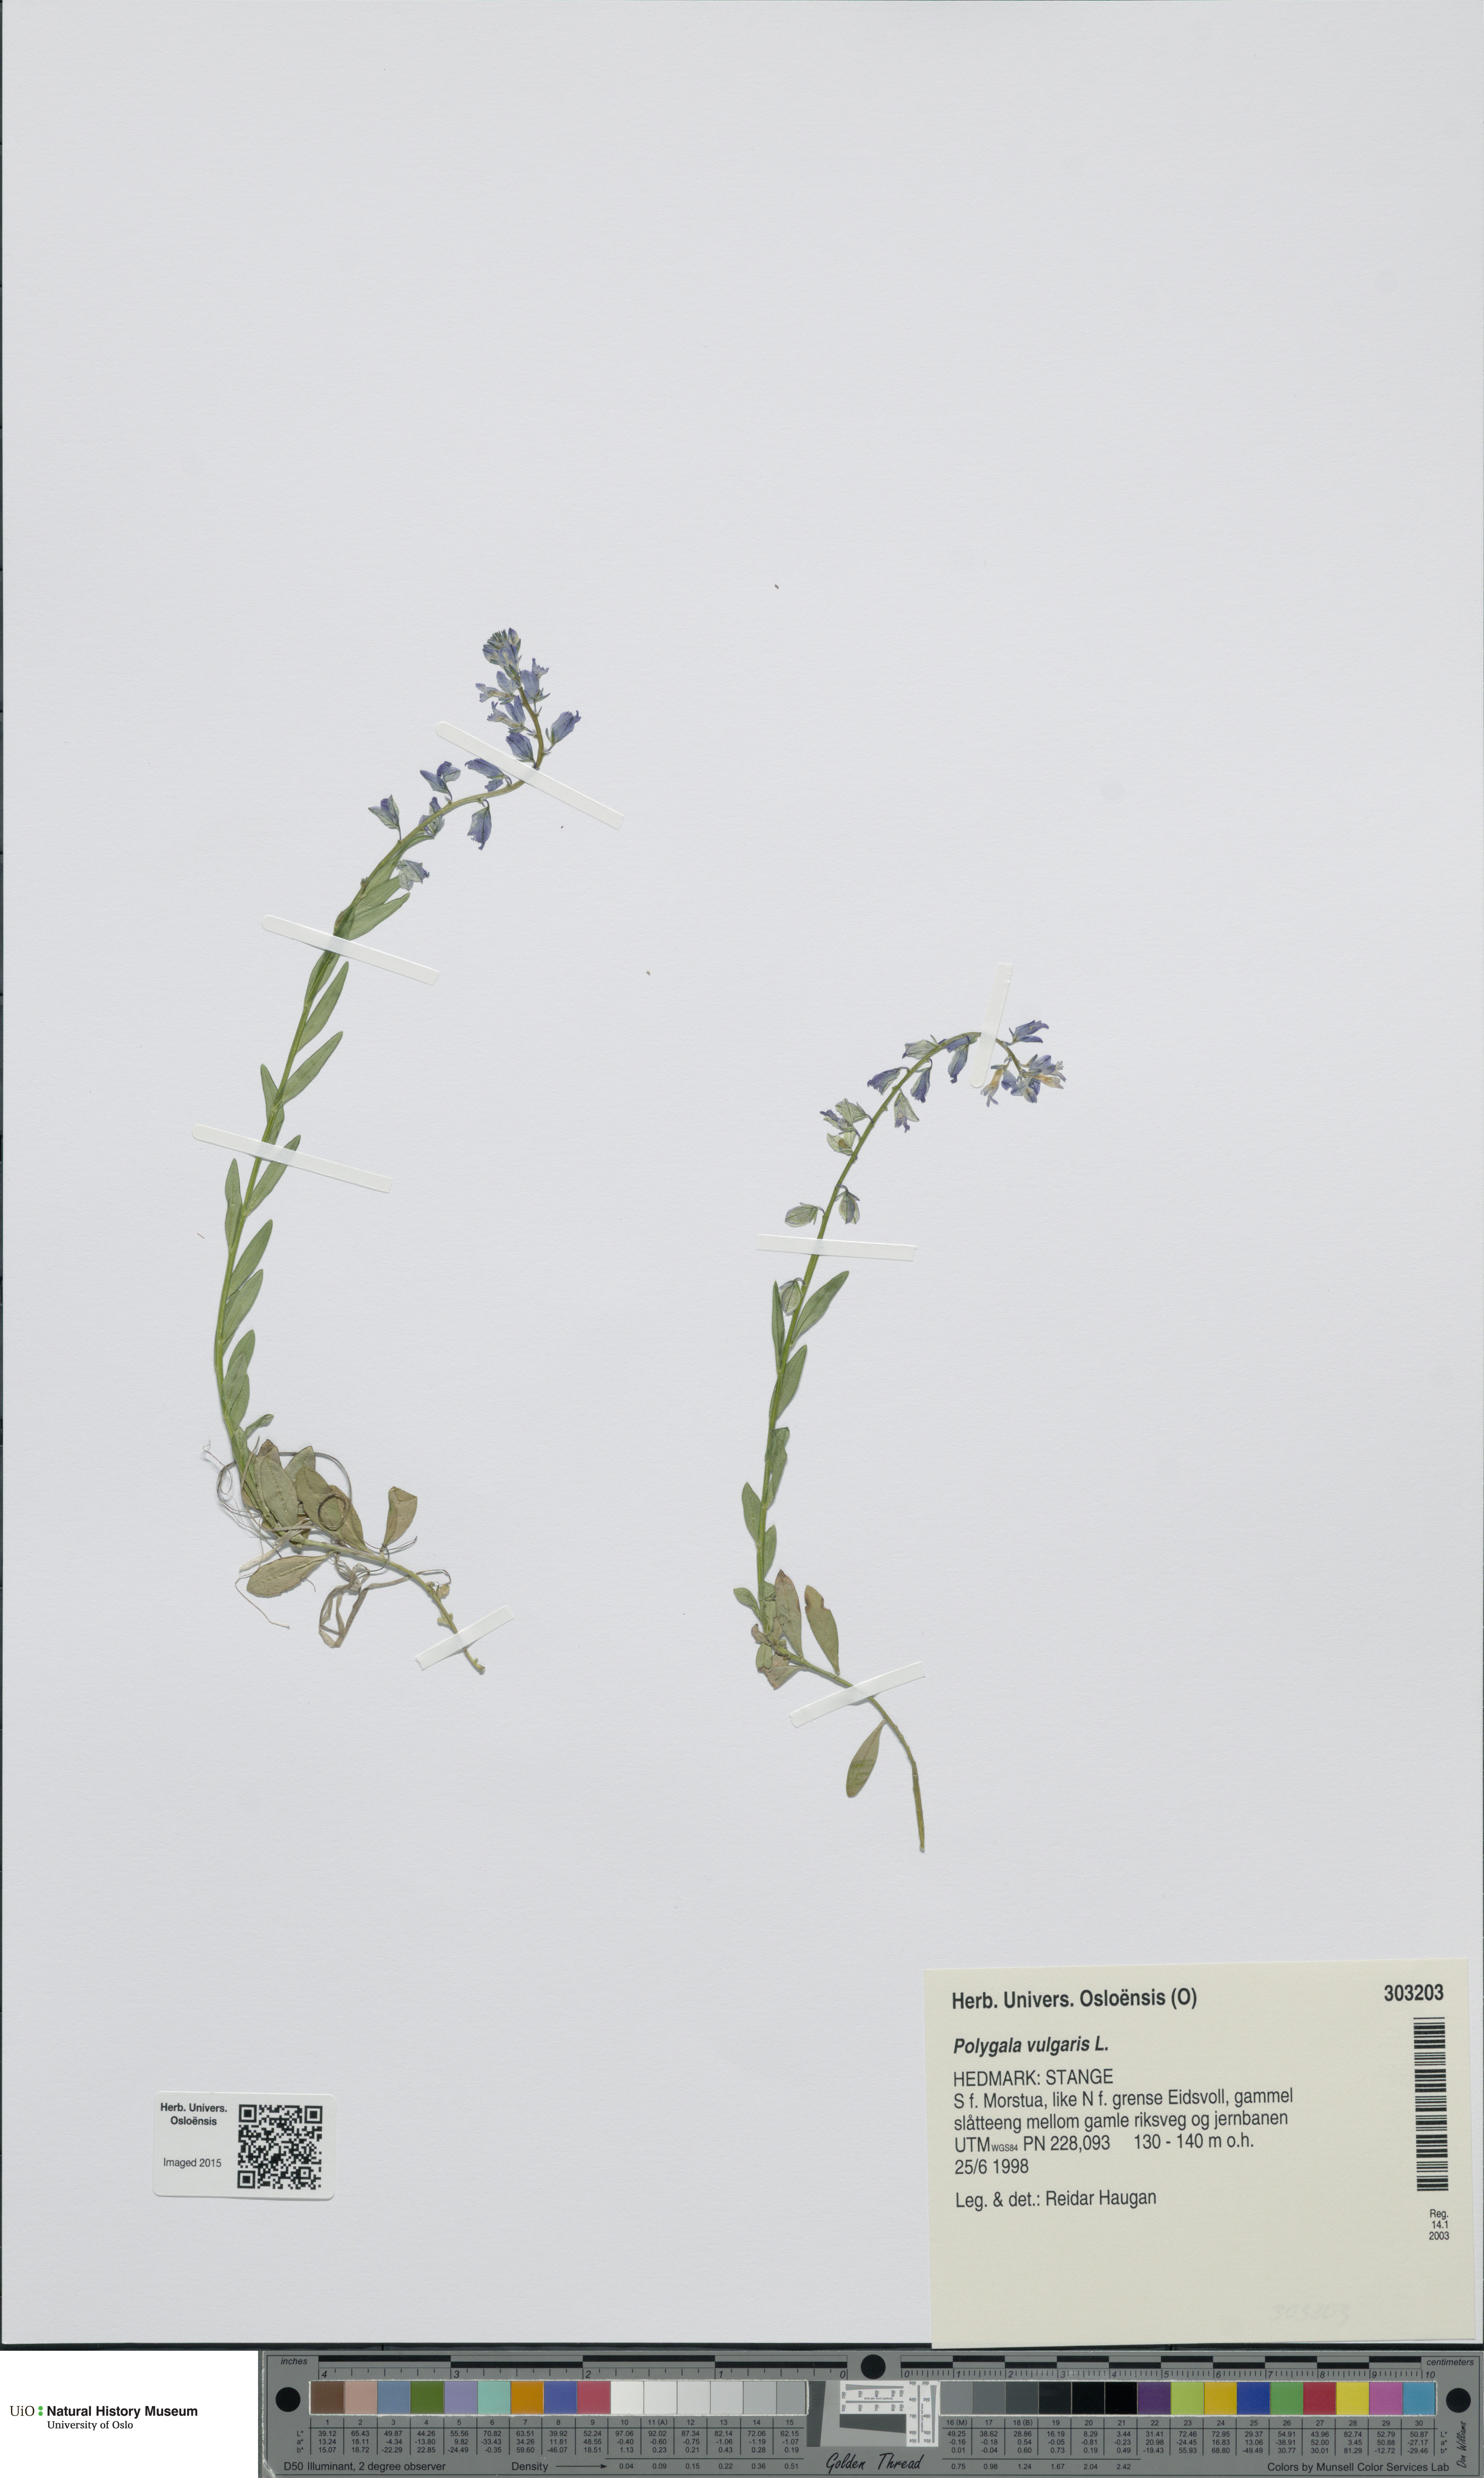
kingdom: Plantae
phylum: Tracheophyta
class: Magnoliopsida
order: Fabales
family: Polygalaceae
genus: Polygala
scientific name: Polygala vulgaris
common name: Common milkwort
